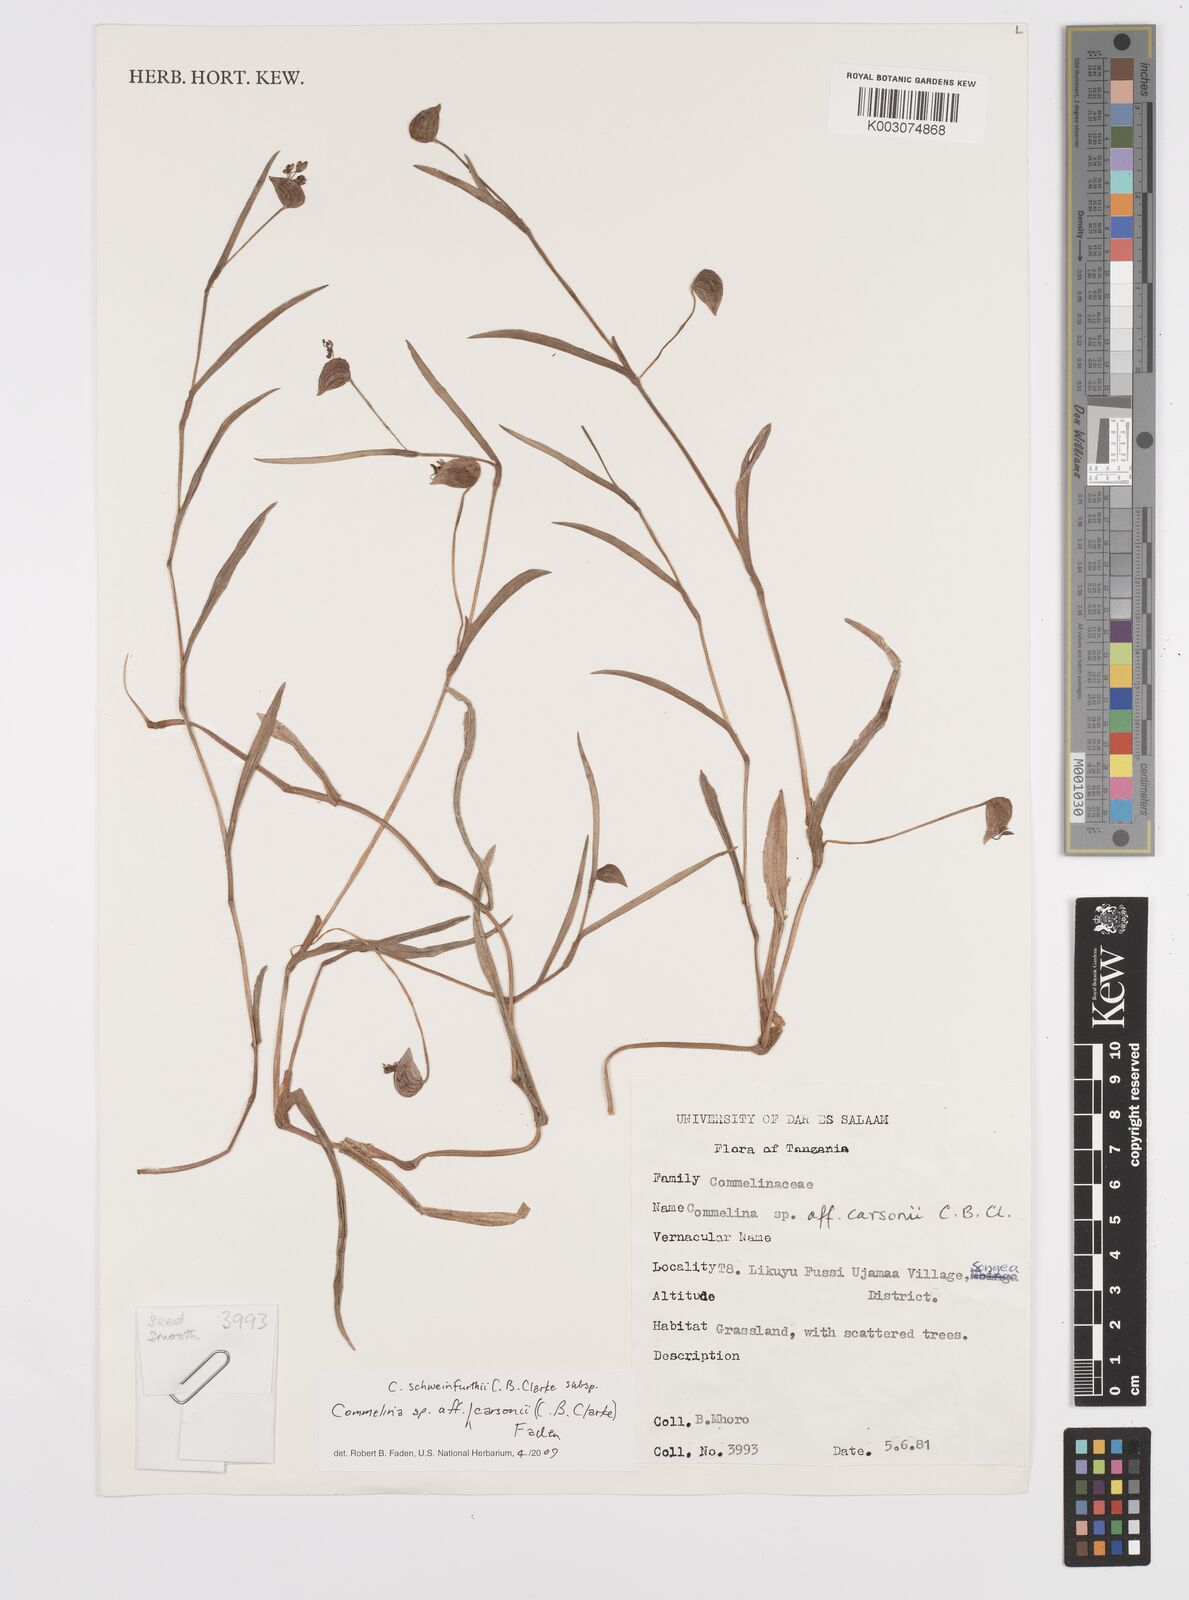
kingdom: Plantae
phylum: Tracheophyta
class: Liliopsida
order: Commelinales
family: Commelinaceae
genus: Commelina
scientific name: Commelina schweinfurthii
